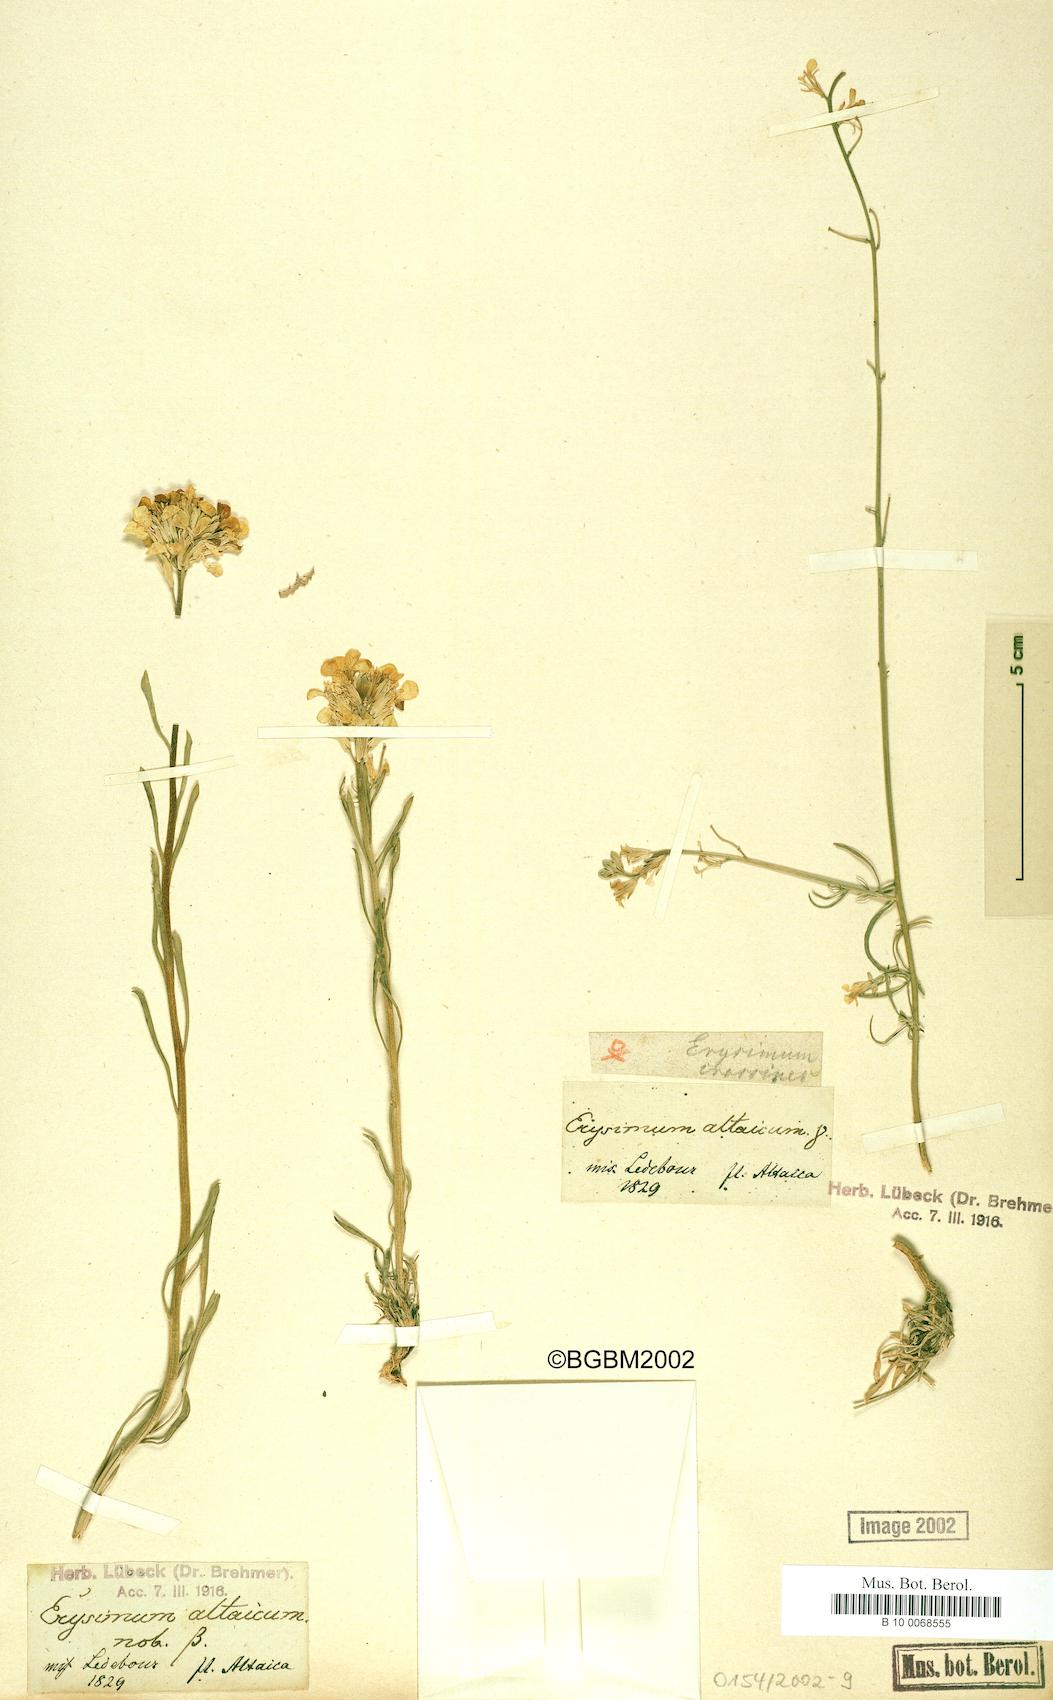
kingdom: Plantae
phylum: Tracheophyta
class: Magnoliopsida
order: Brassicales
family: Brassicaceae
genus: Erysimum
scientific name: Erysimum altaicum
